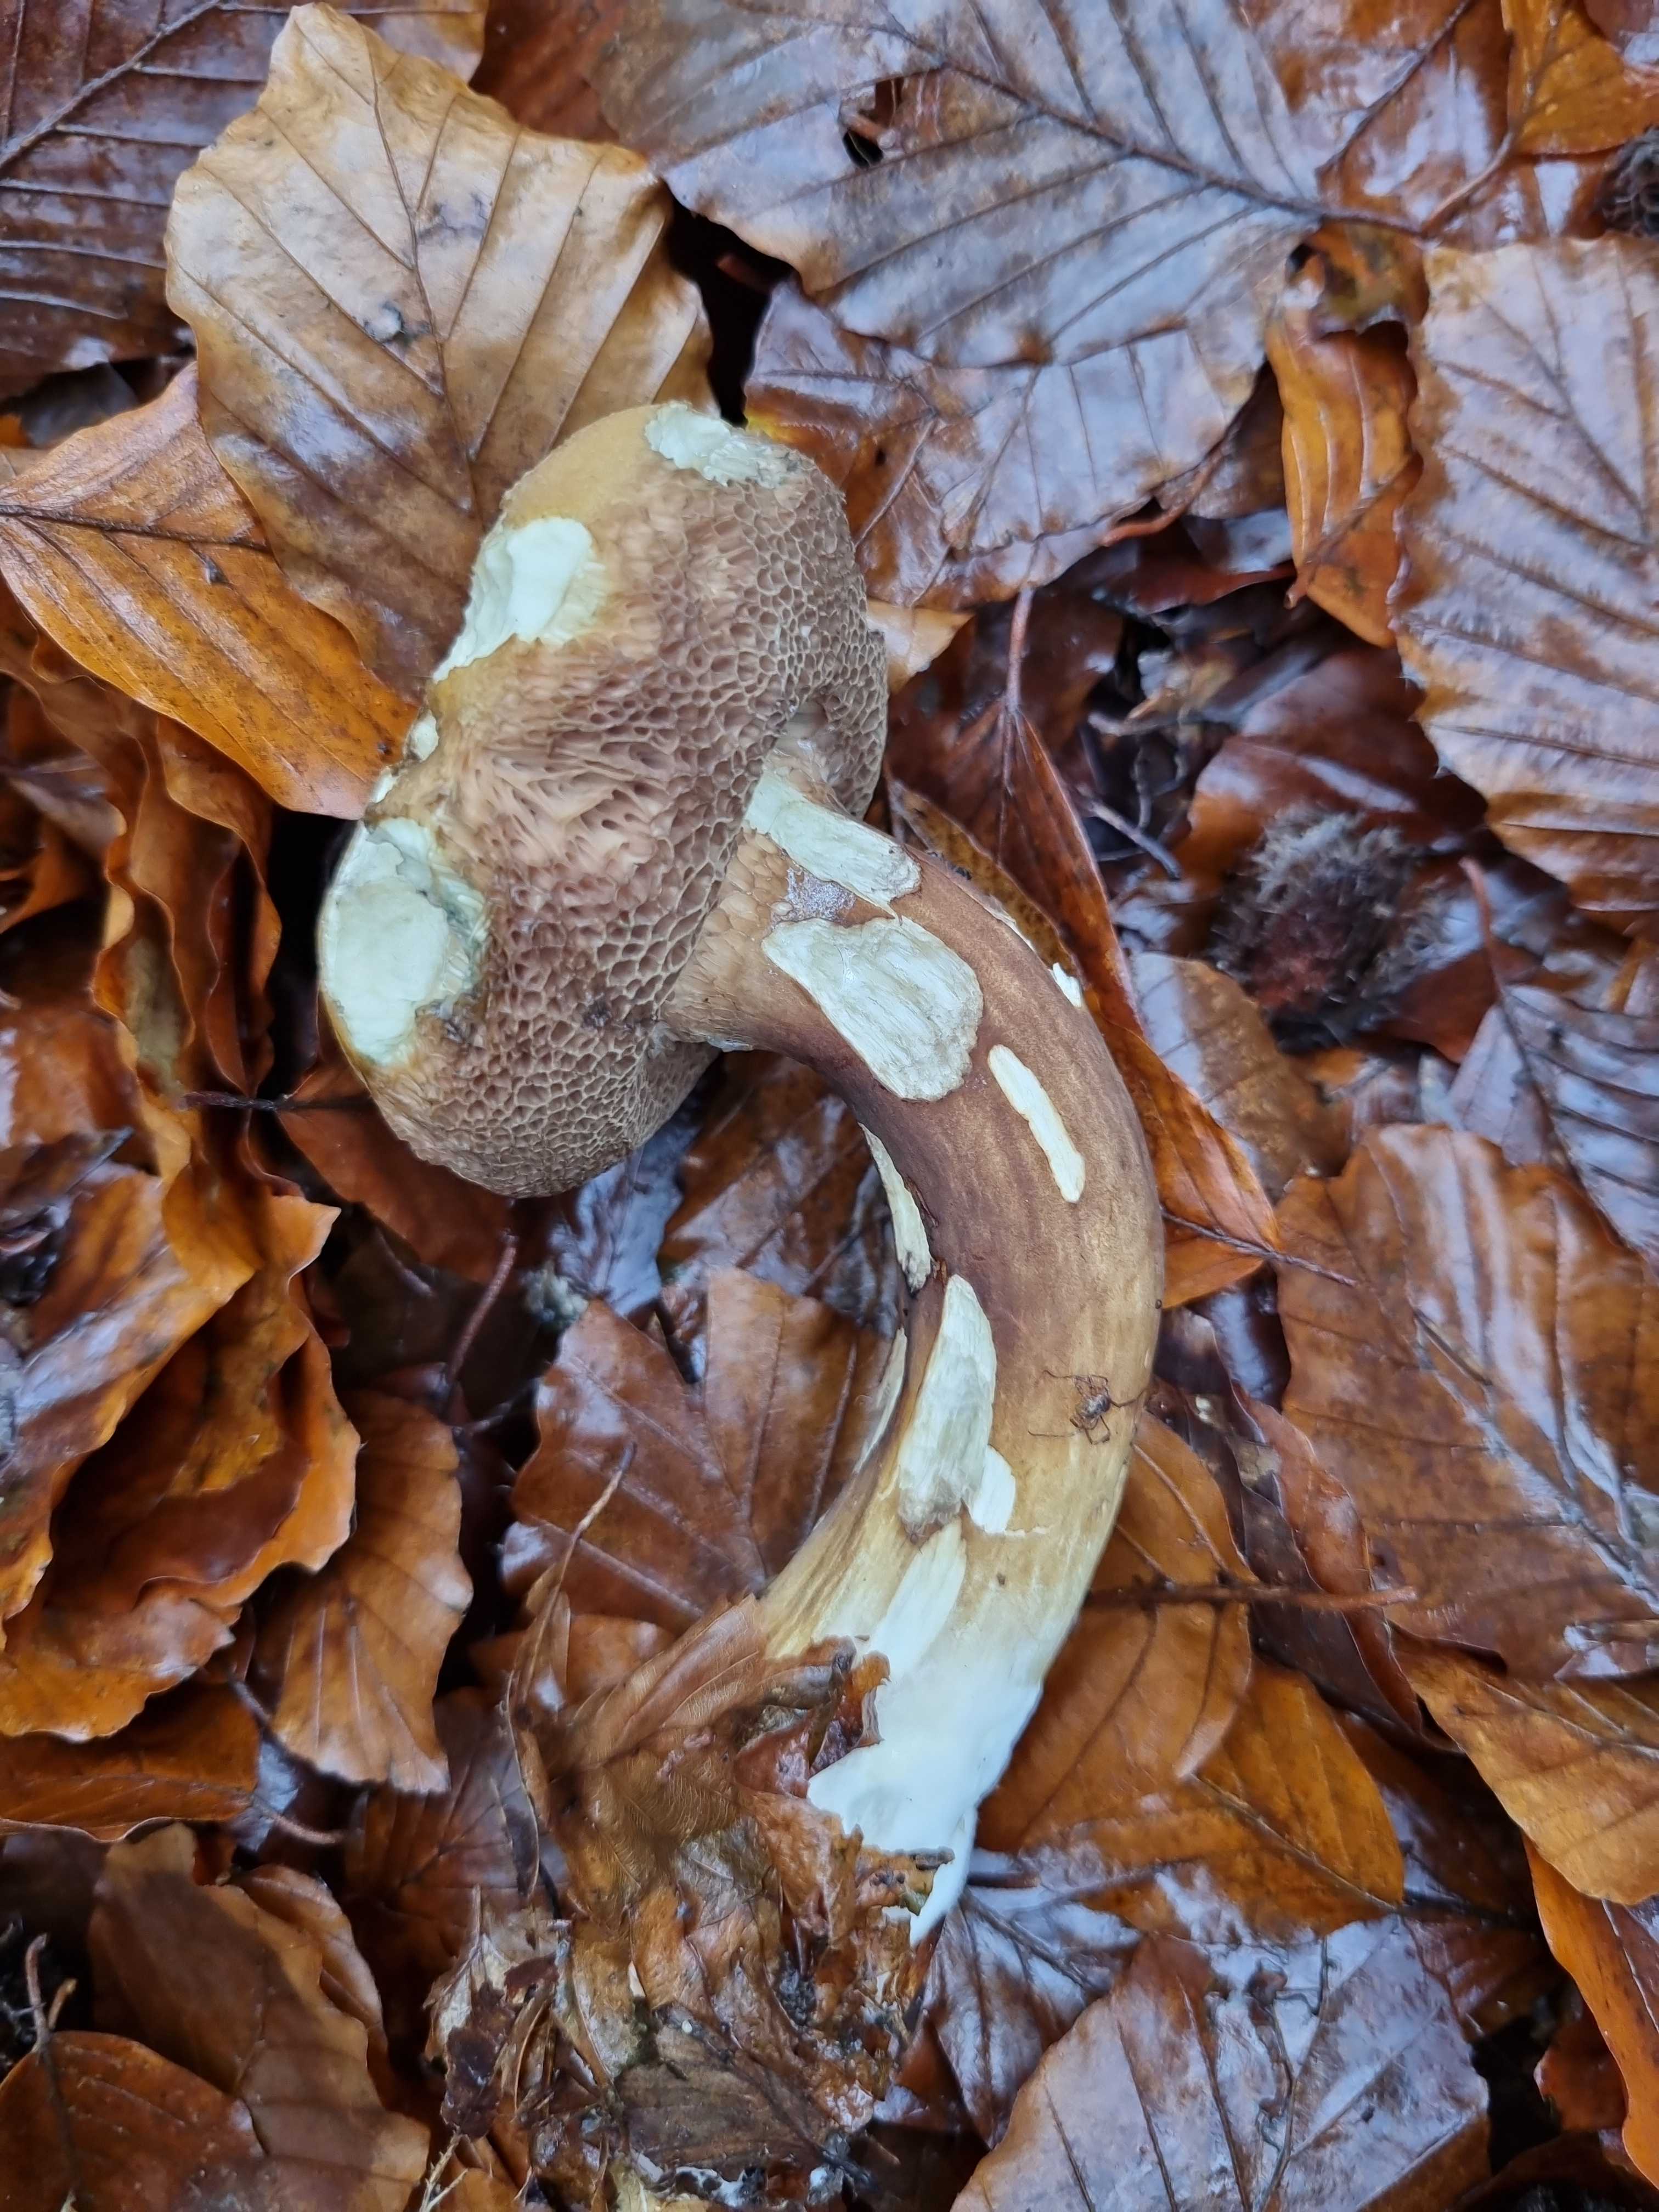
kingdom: Fungi
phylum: Basidiomycota
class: Agaricomycetes
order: Boletales
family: Boletaceae
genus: Porphyrellus
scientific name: Porphyrellus porphyrosporus
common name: sodrørhat
